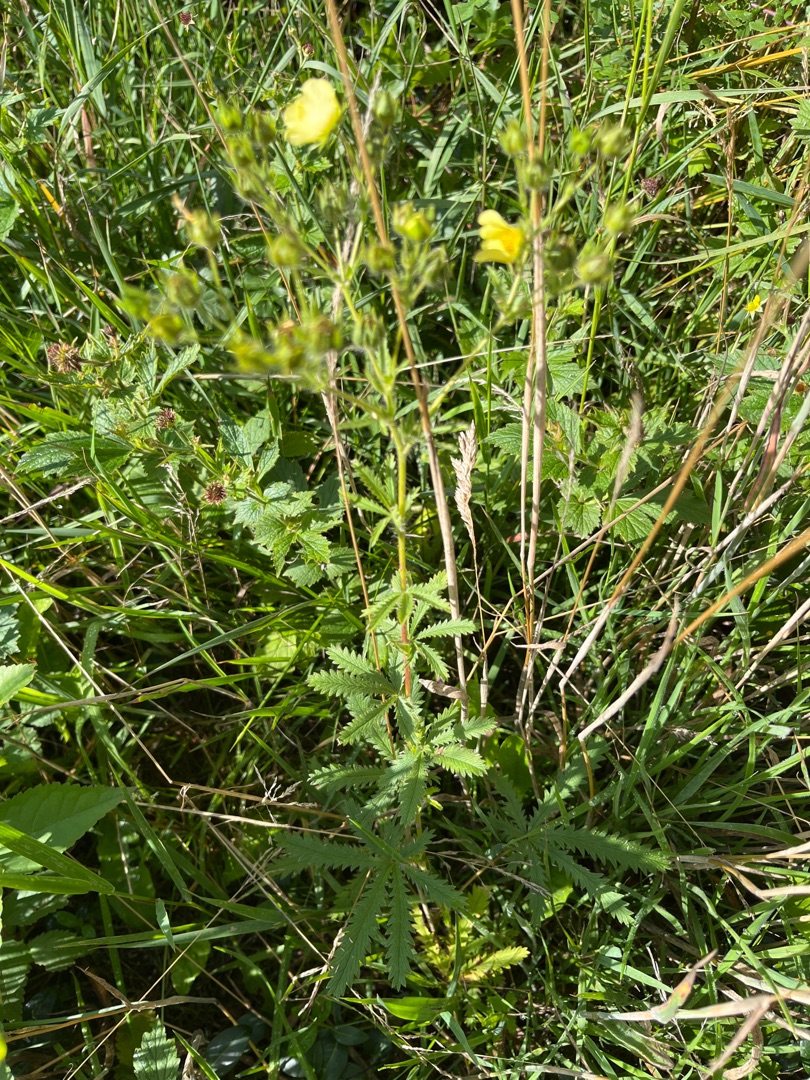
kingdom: Plantae
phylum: Tracheophyta
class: Magnoliopsida
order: Rosales
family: Rosaceae
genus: Potentilla
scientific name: Potentilla recta
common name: Rank potentil
